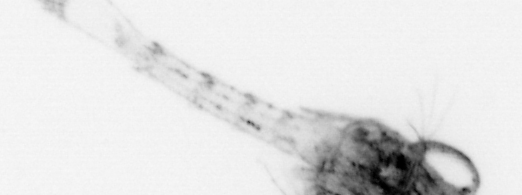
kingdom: Animalia
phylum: Arthropoda
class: Malacostraca
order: Decapoda
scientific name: Decapoda
